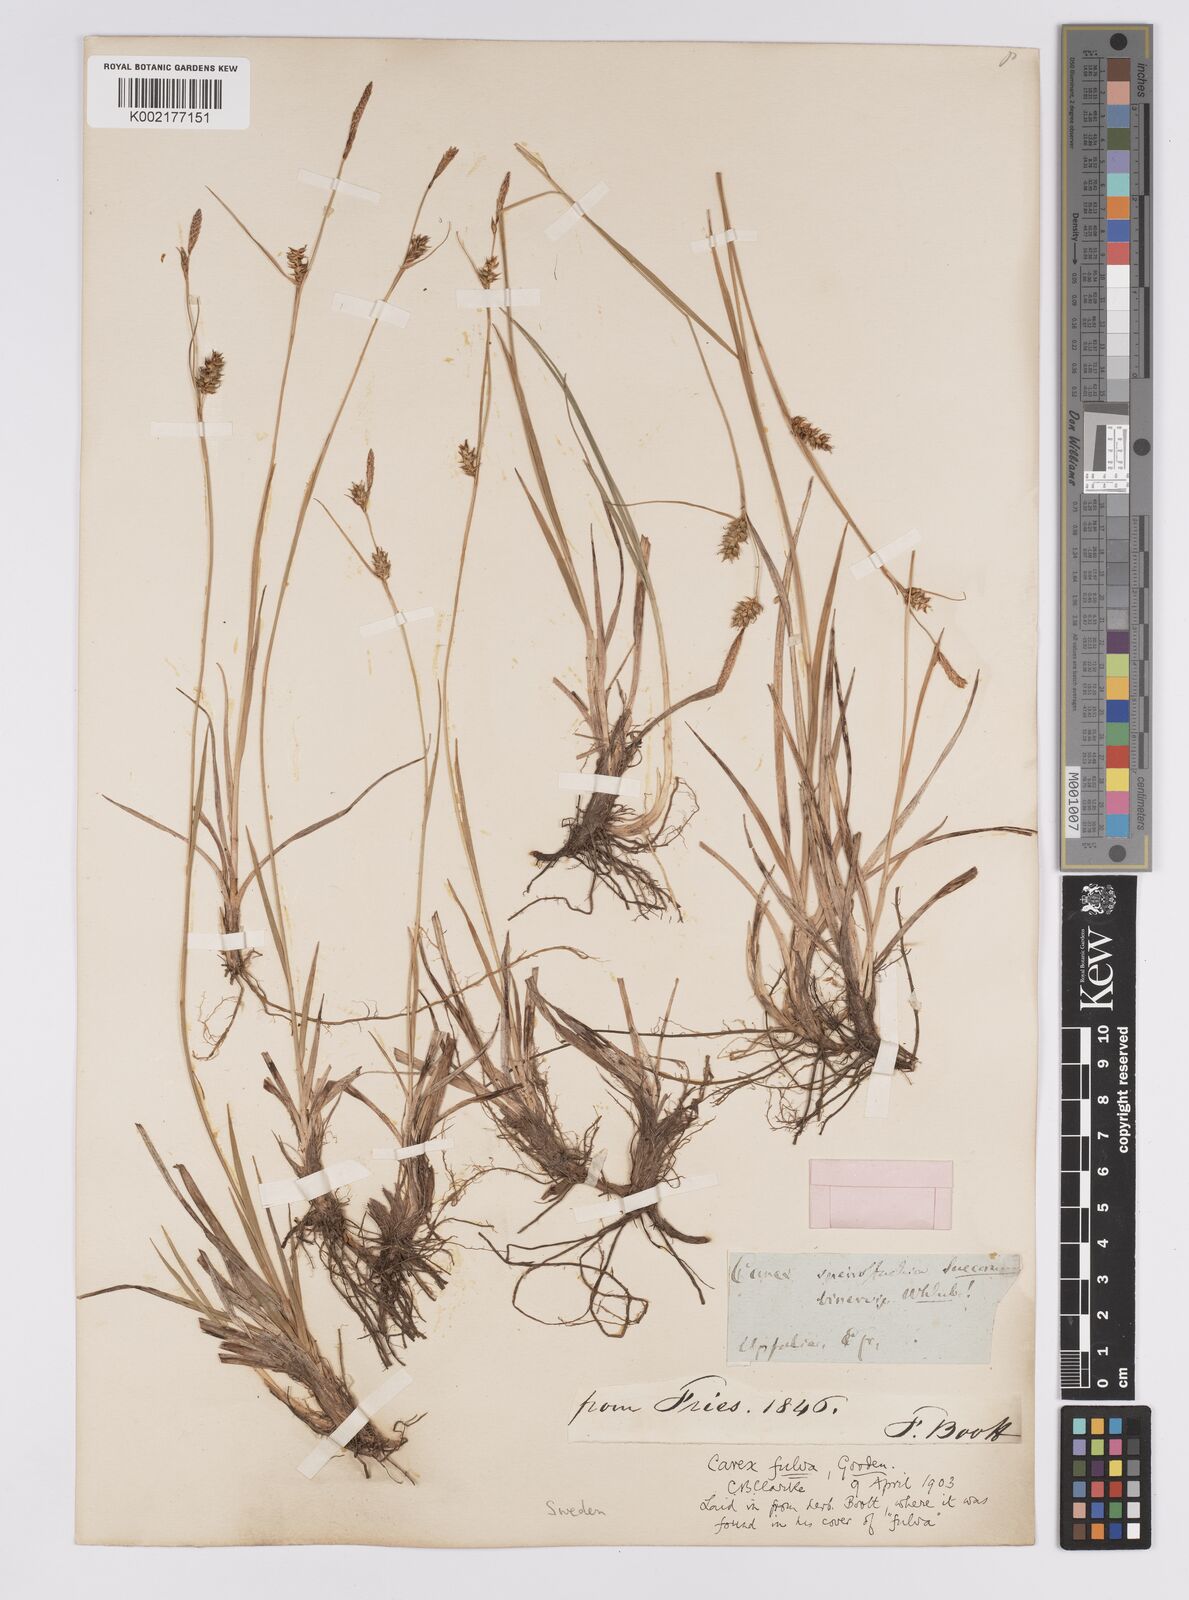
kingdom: Plantae
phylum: Tracheophyta
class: Liliopsida
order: Poales
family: Cyperaceae
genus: Carex
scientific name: Carex hostiana
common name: Tawny sedge
